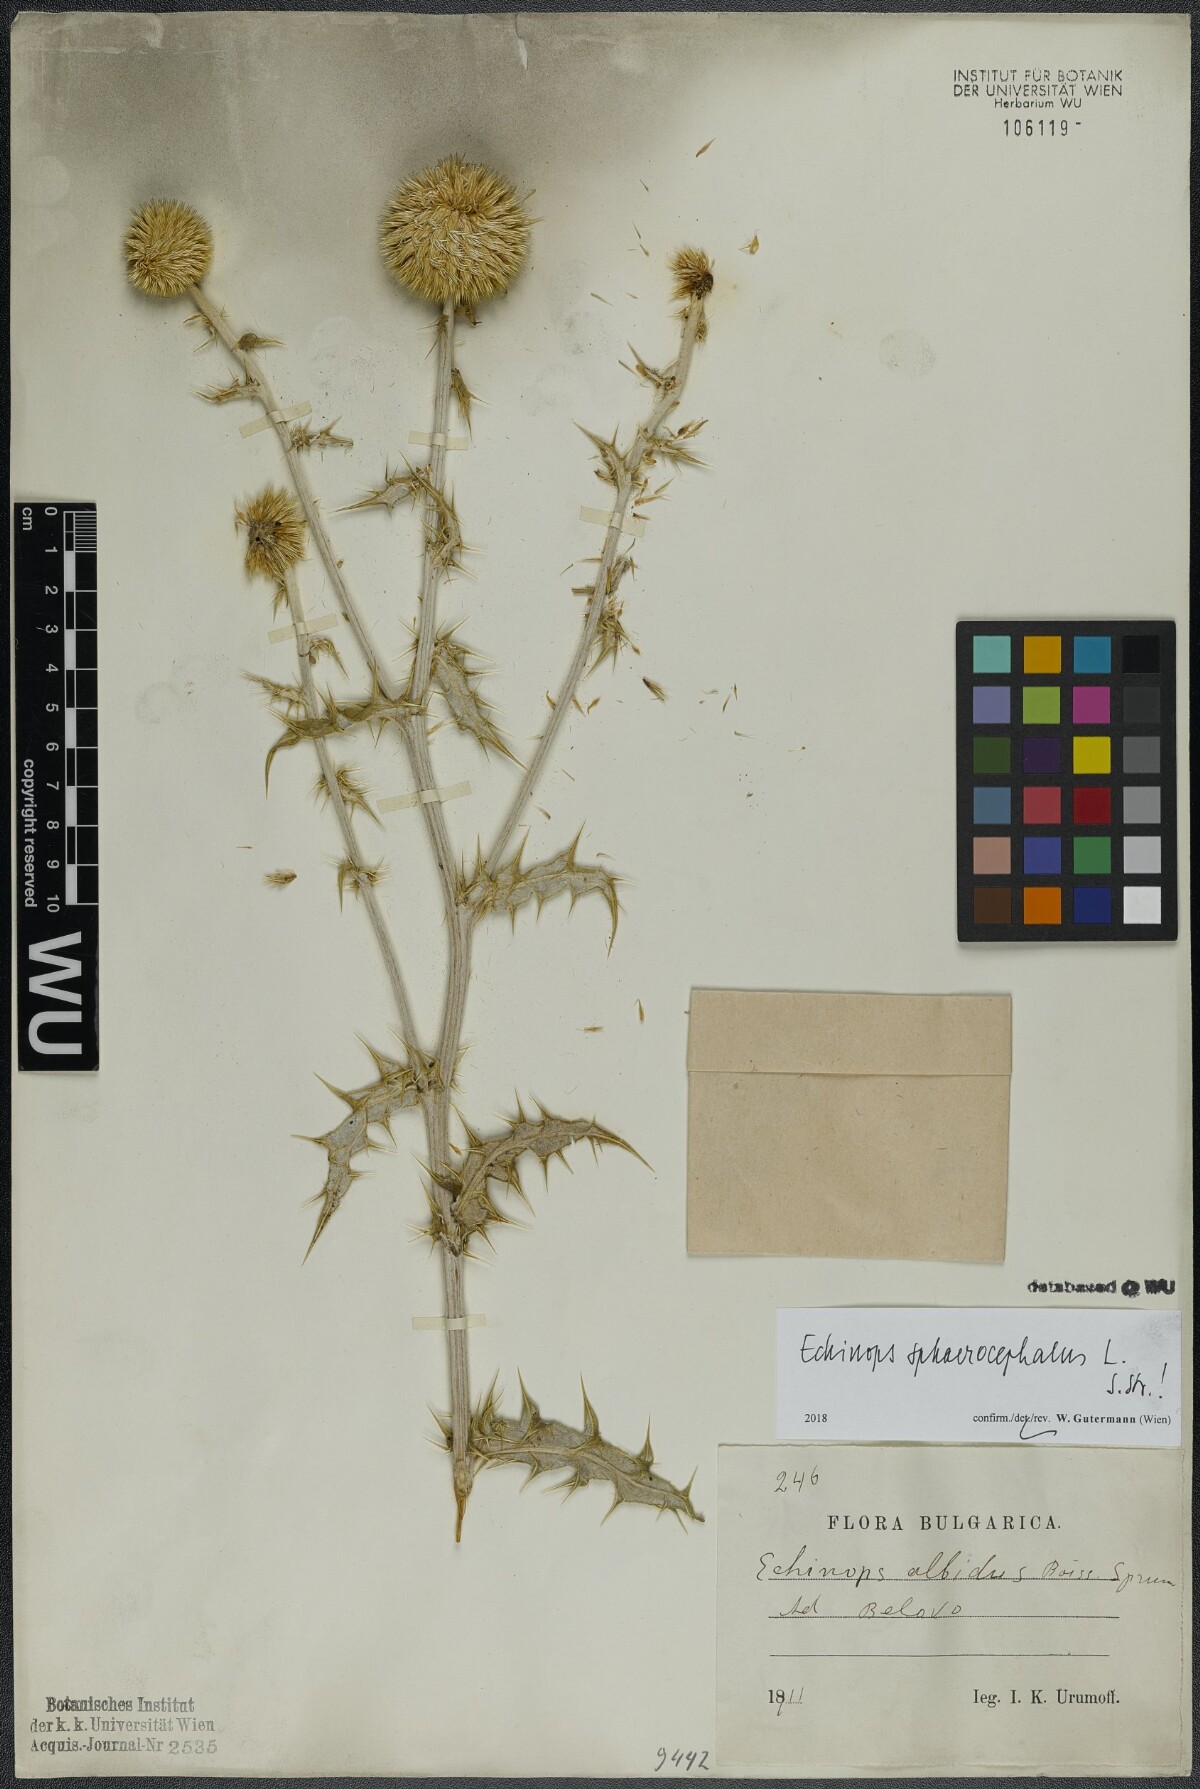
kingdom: Plantae
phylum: Tracheophyta
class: Magnoliopsida
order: Asterales
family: Asteraceae
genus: Echinops
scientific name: Echinops sphaerocephalus
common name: Glandular globe-thistle
